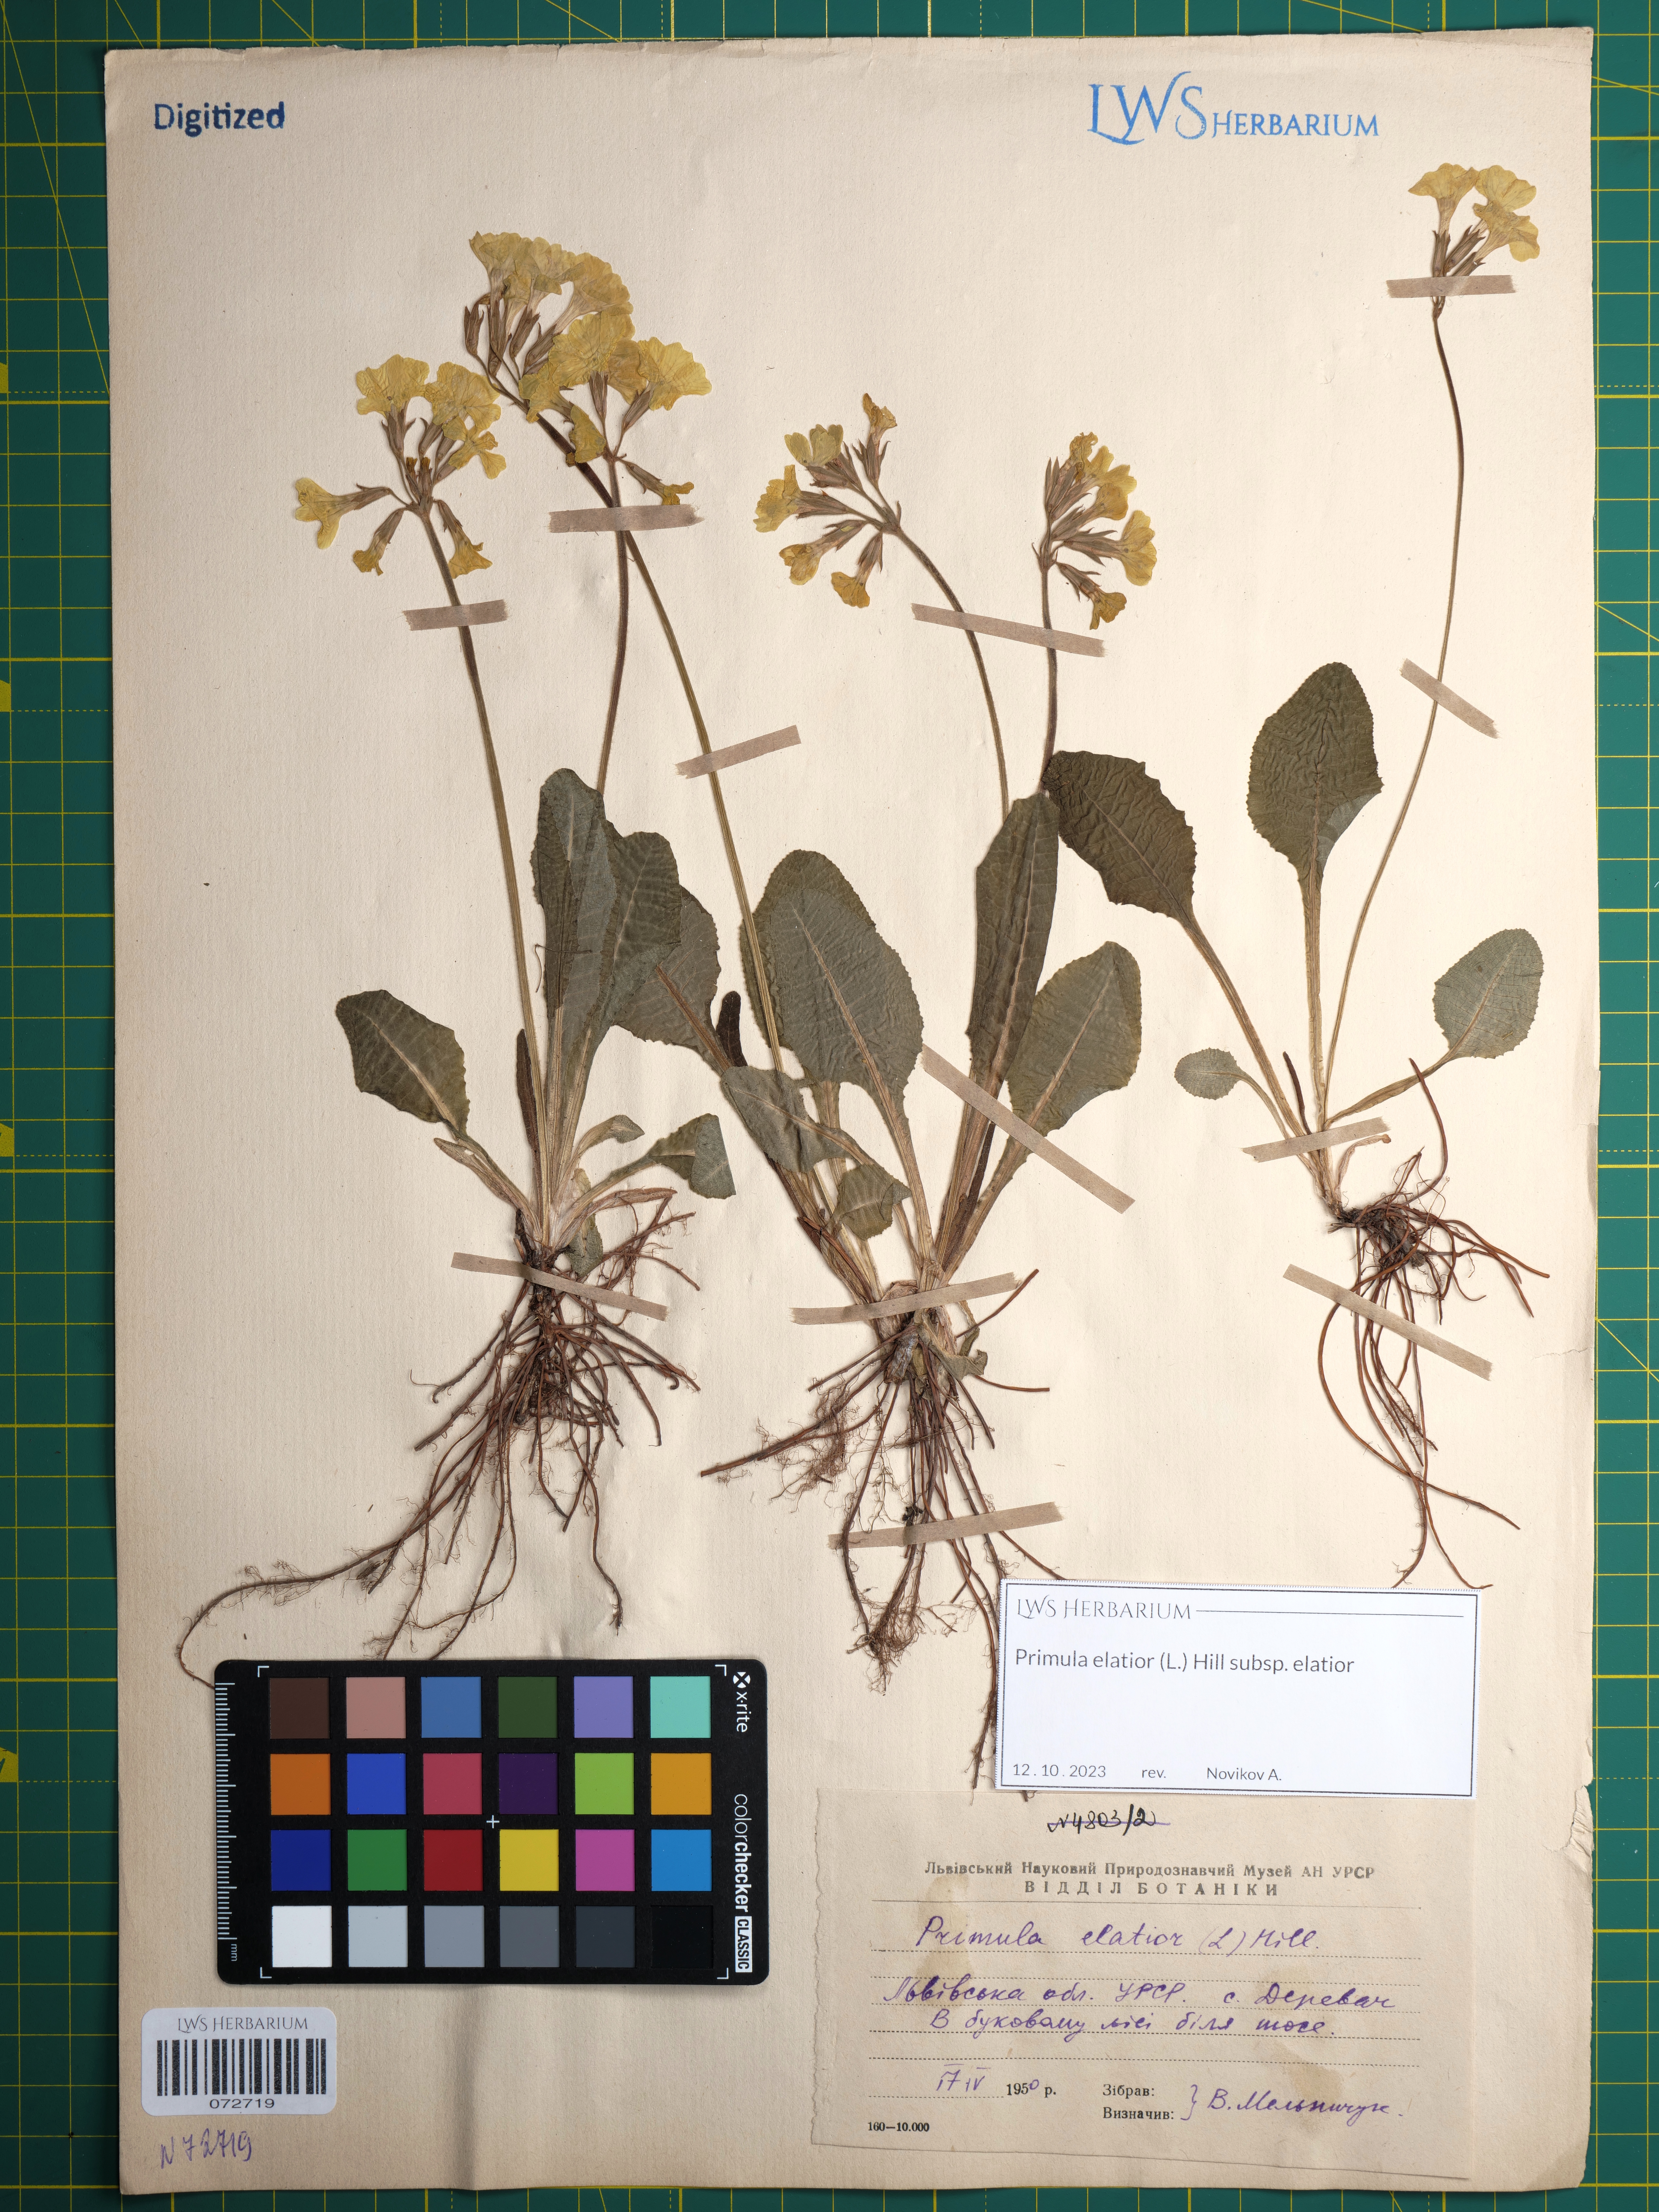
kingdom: Plantae
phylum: Tracheophyta
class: Magnoliopsida
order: Ericales
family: Primulaceae
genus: Primula
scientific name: Primula elatior
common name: Oxlip
